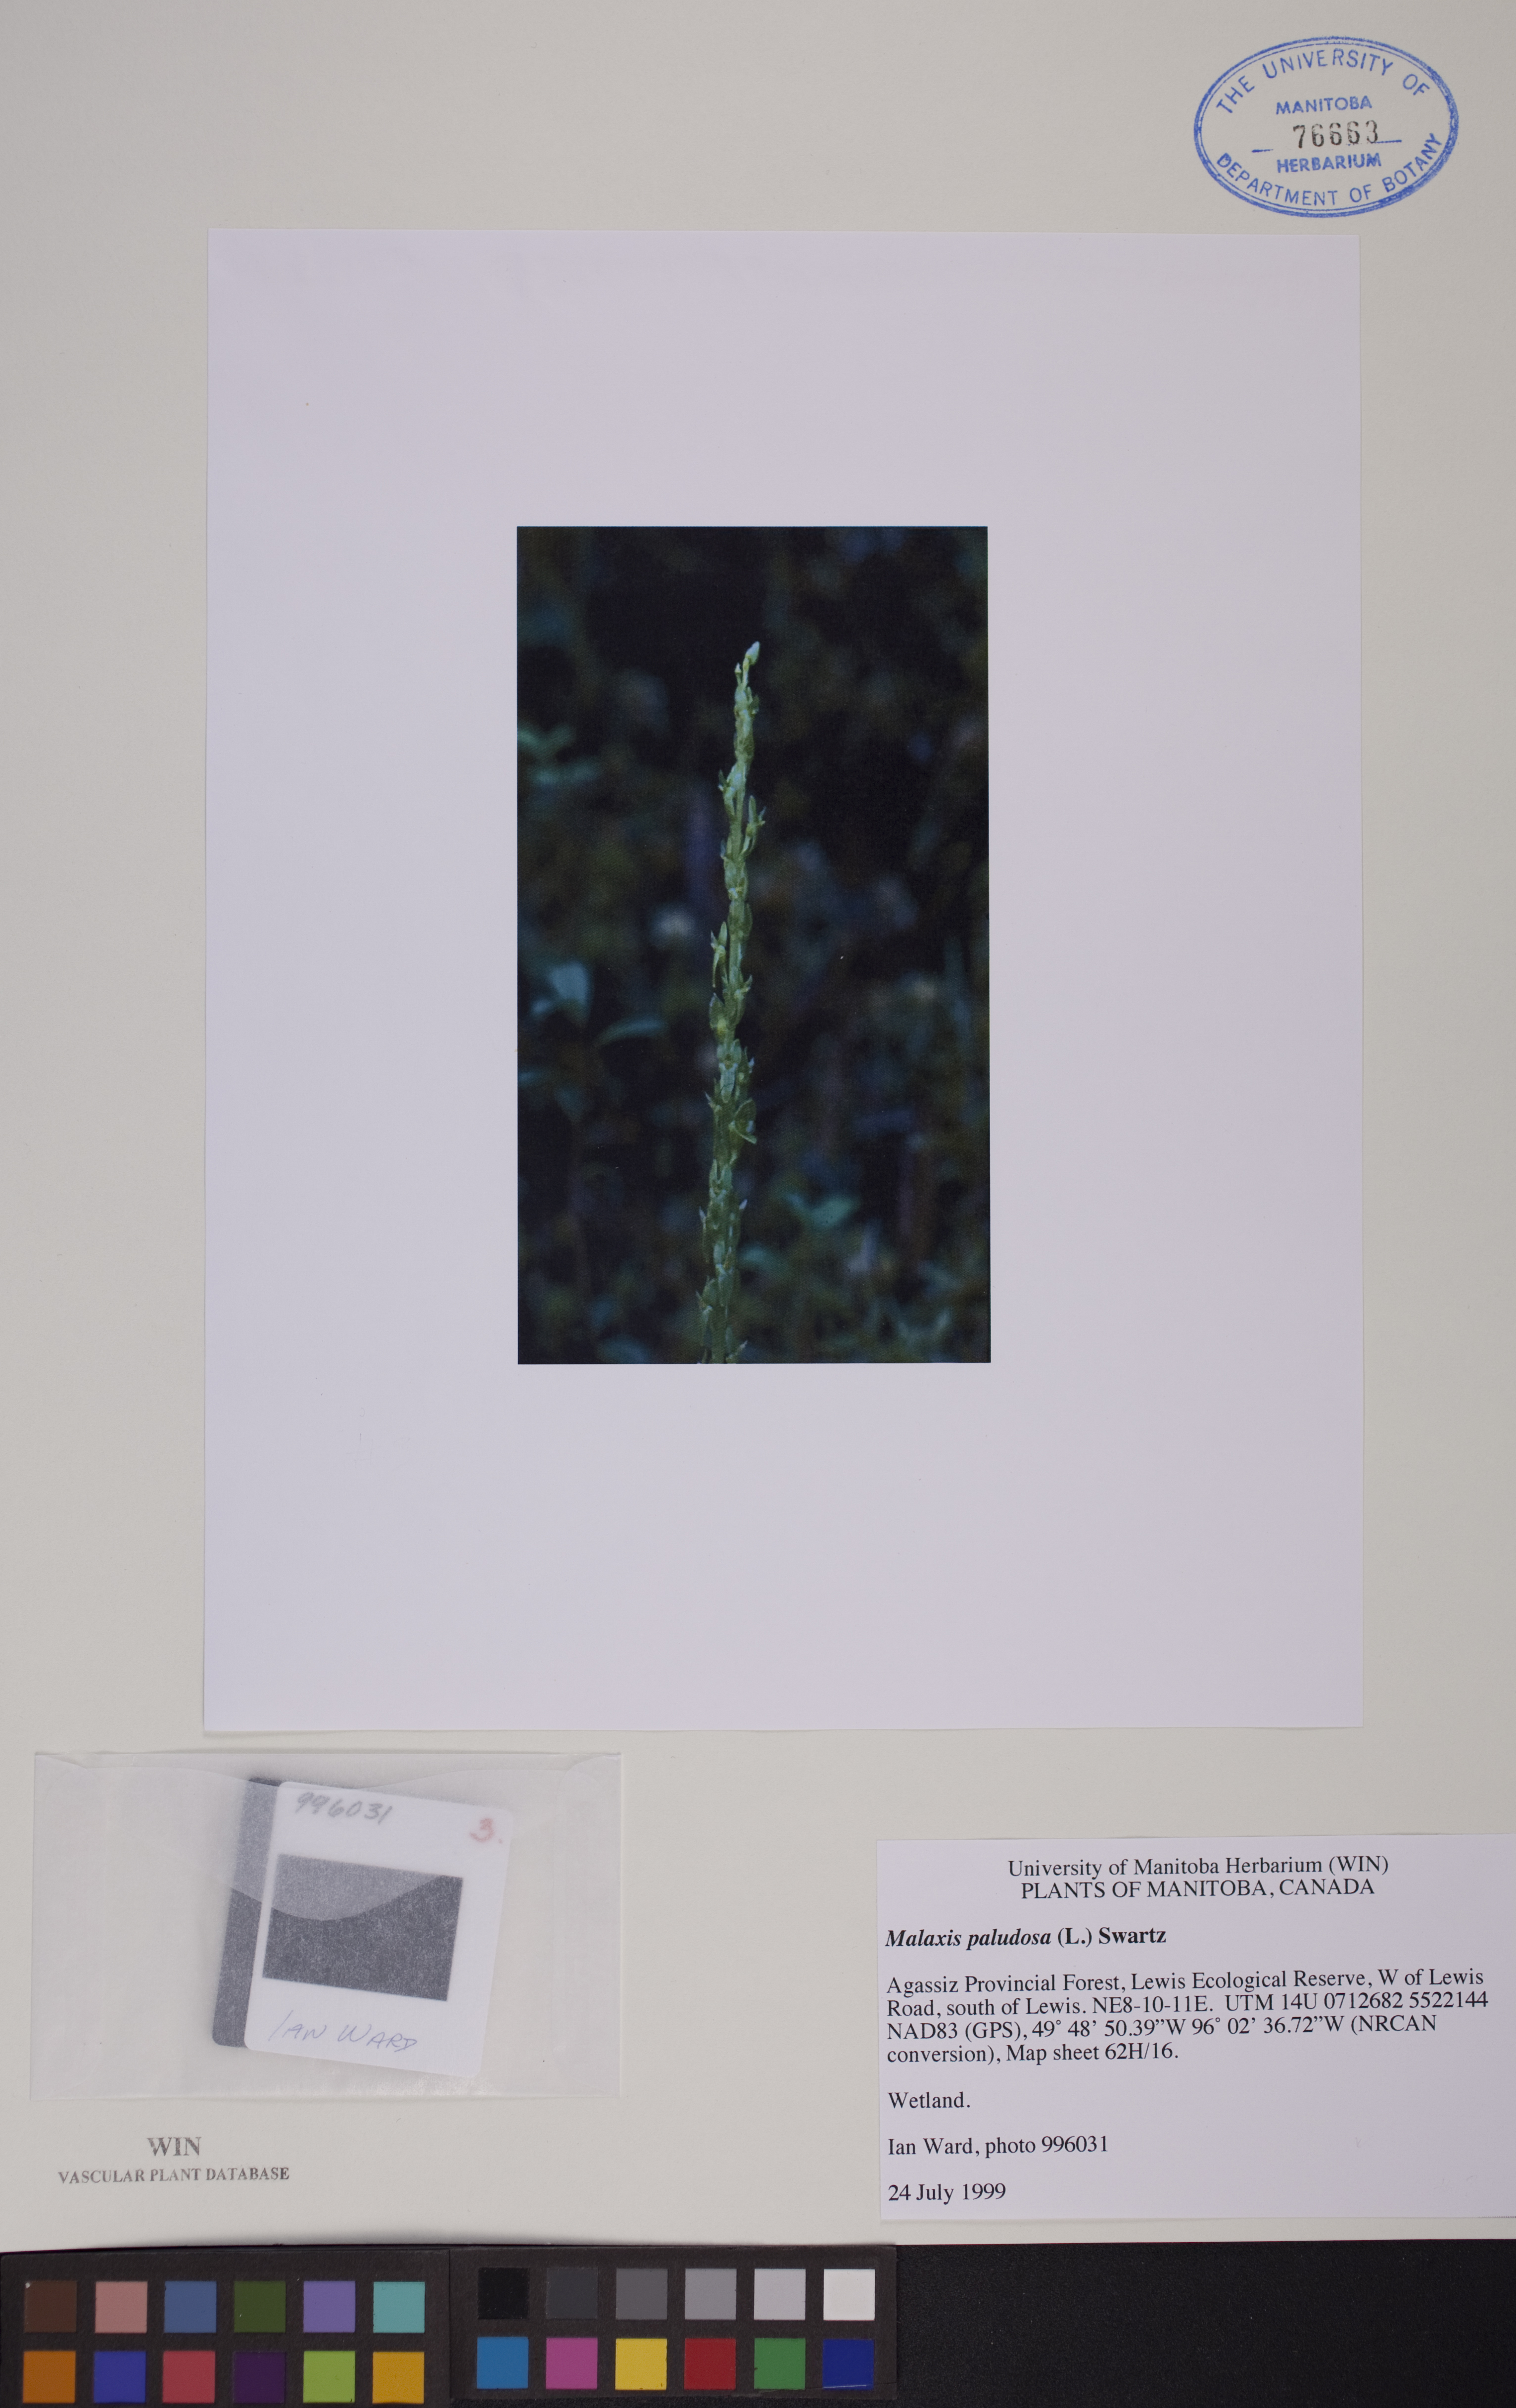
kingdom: Plantae
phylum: Tracheophyta
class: Liliopsida
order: Asparagales
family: Orchidaceae
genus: Hammarbya
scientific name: Hammarbya paludosa
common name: Bog orchid
